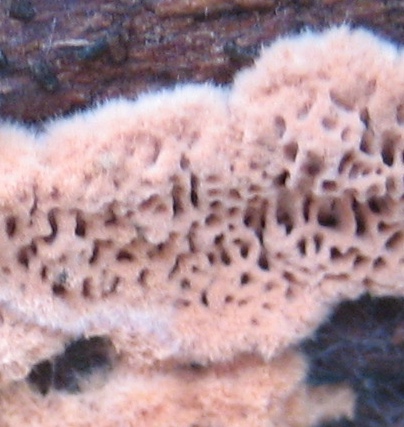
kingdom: Fungi
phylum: Basidiomycota
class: Agaricomycetes
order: Polyporales
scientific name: Polyporales
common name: poresvampordenen
